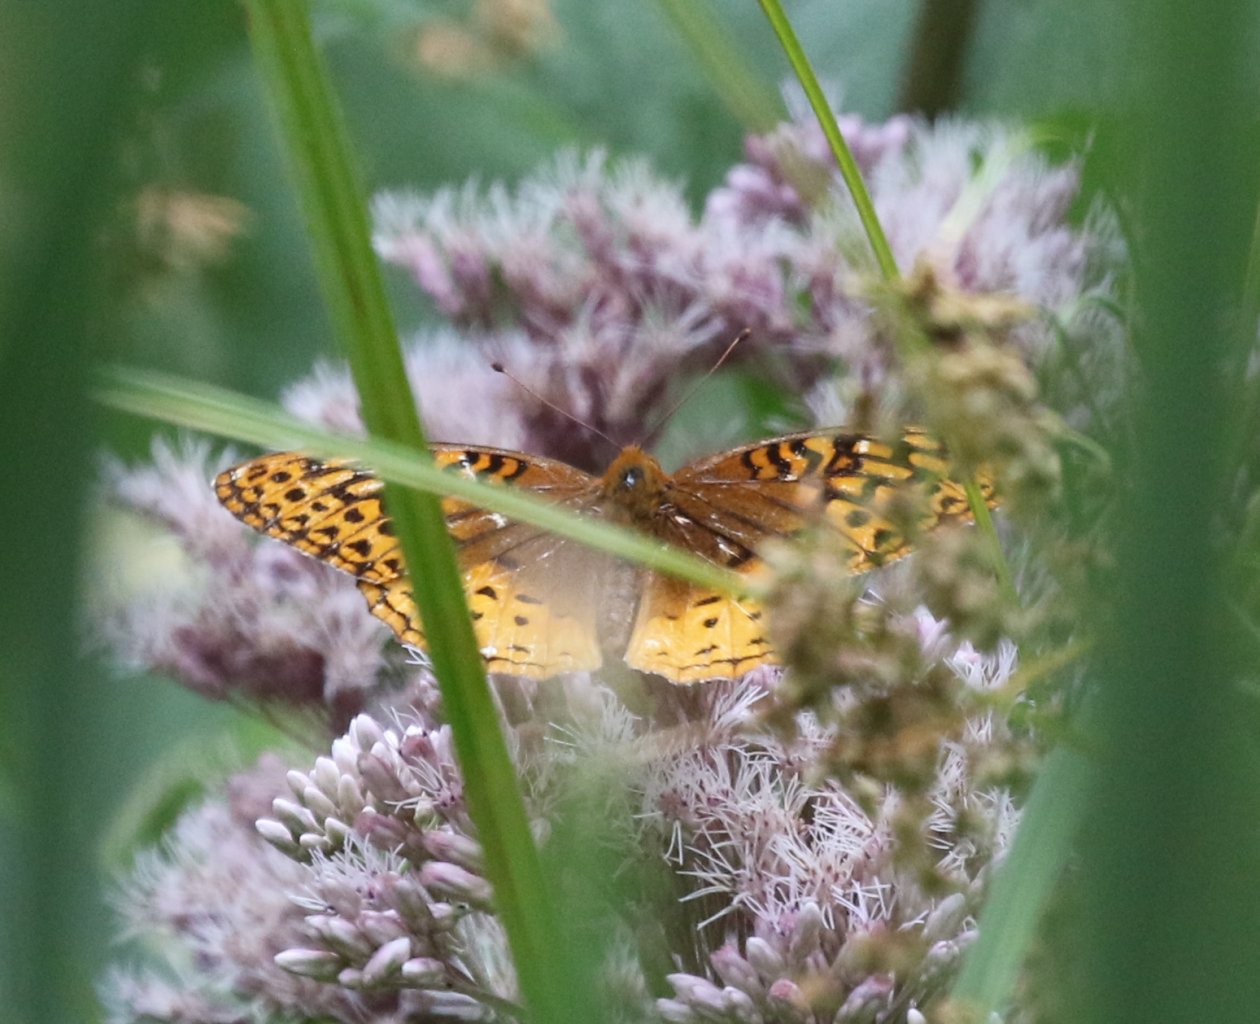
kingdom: Animalia
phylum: Arthropoda
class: Insecta
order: Lepidoptera
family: Nymphalidae
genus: Speyeria
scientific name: Speyeria cybele
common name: Great Spangled Fritillary
